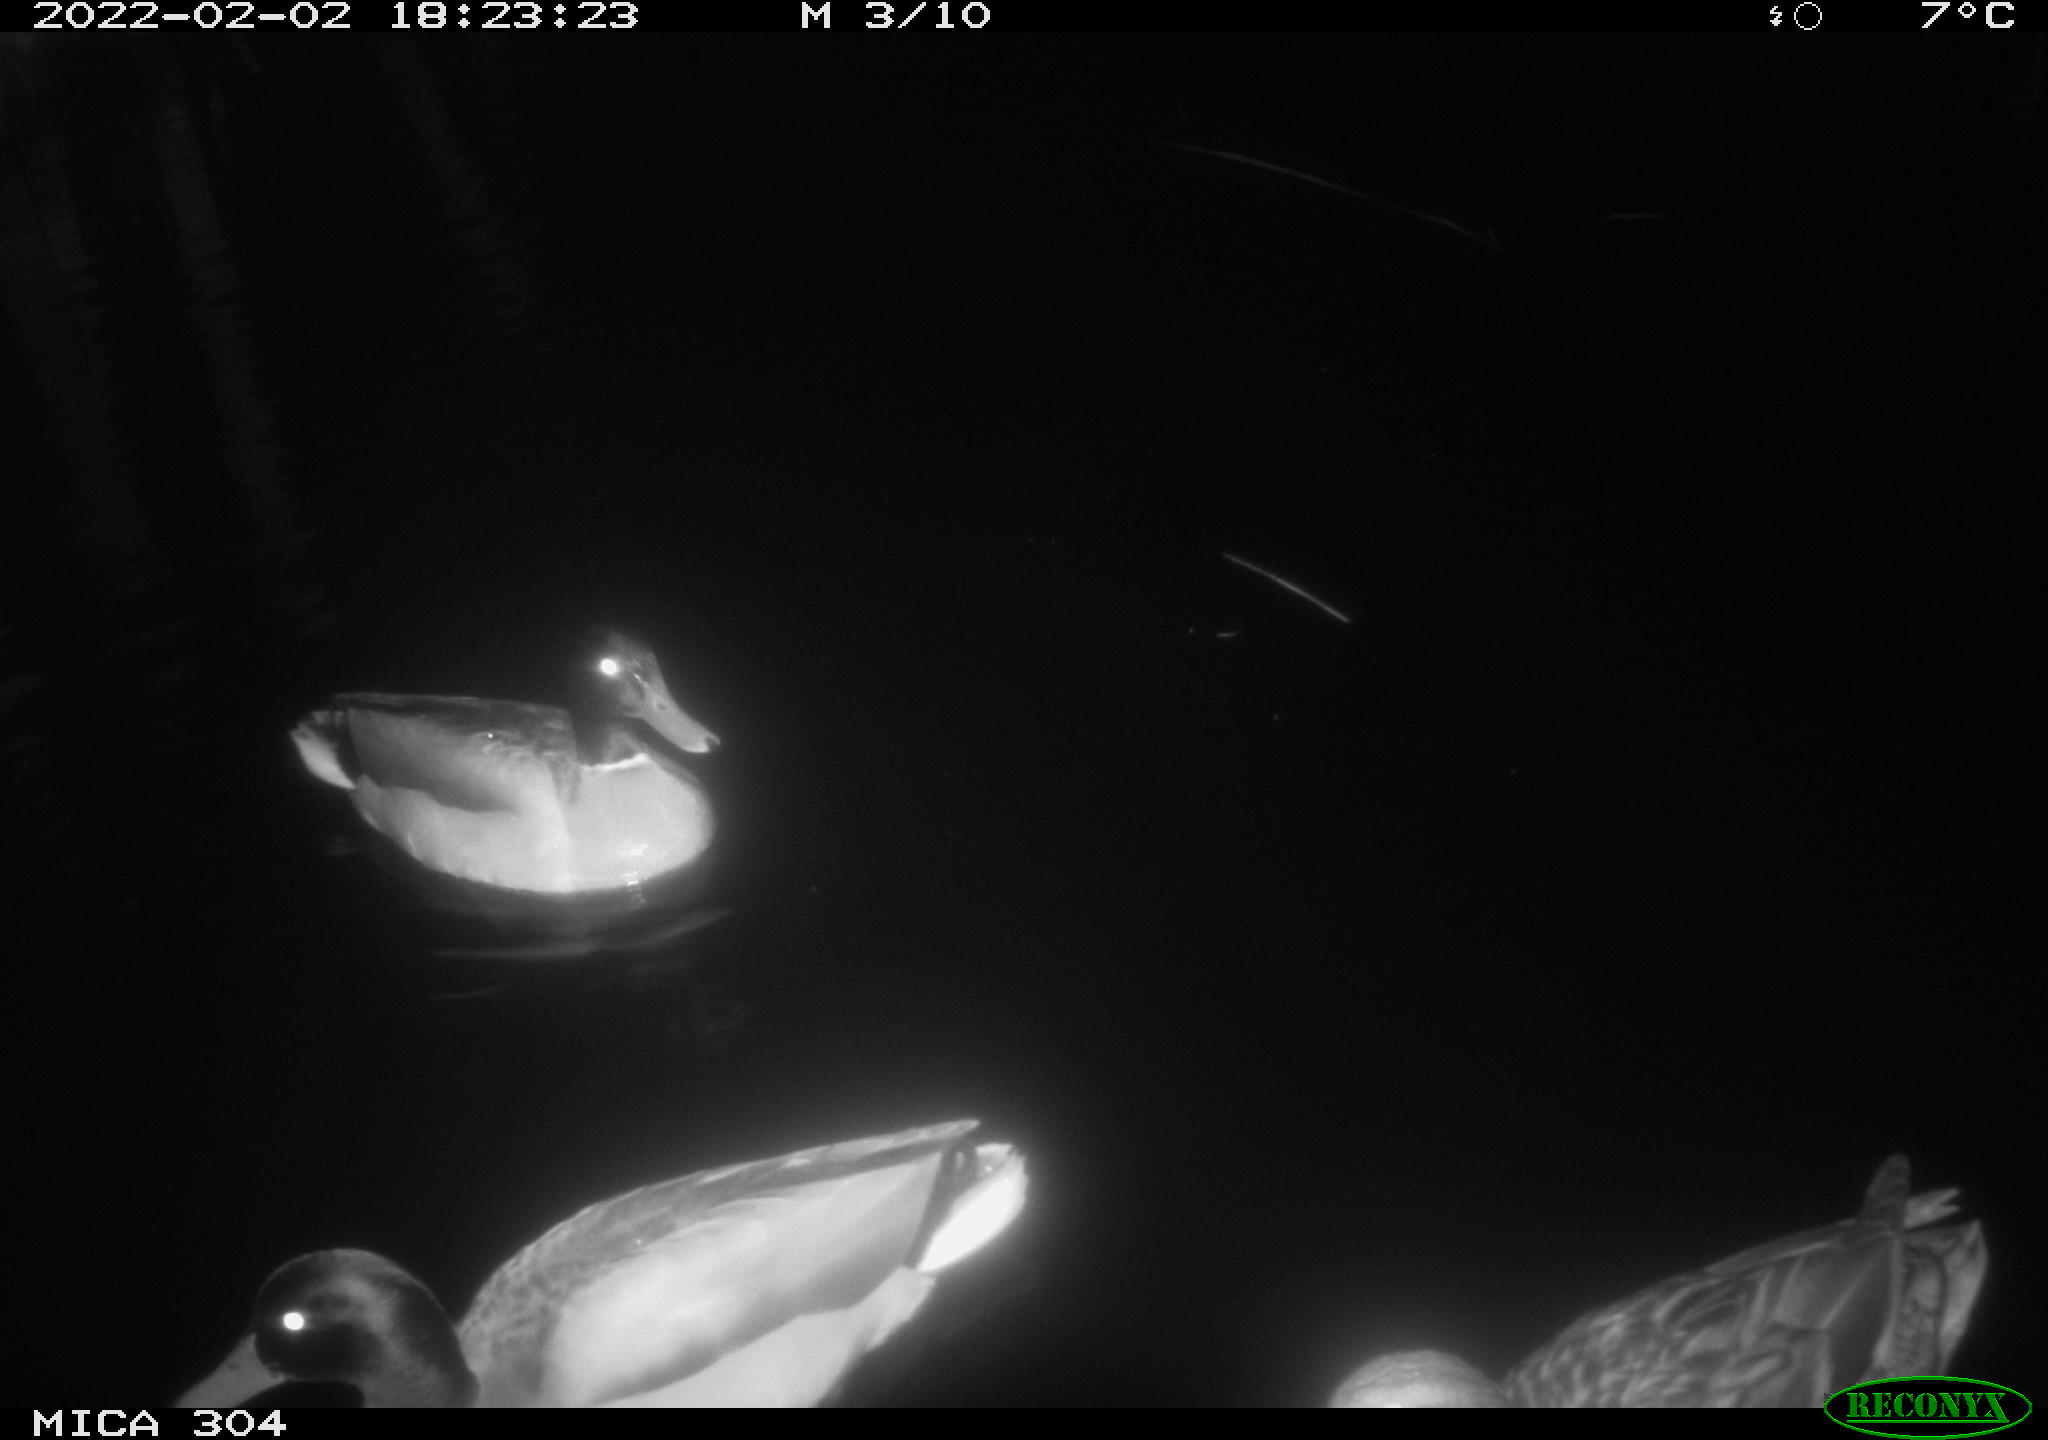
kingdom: Animalia
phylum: Chordata
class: Aves
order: Anseriformes
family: Anatidae
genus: Anas
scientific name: Anas
